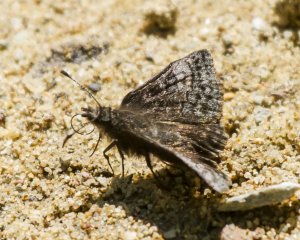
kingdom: Animalia
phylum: Arthropoda
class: Insecta
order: Lepidoptera
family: Hesperiidae
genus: Erynnis
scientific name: Erynnis icelus
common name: Dreamy Duskywing
